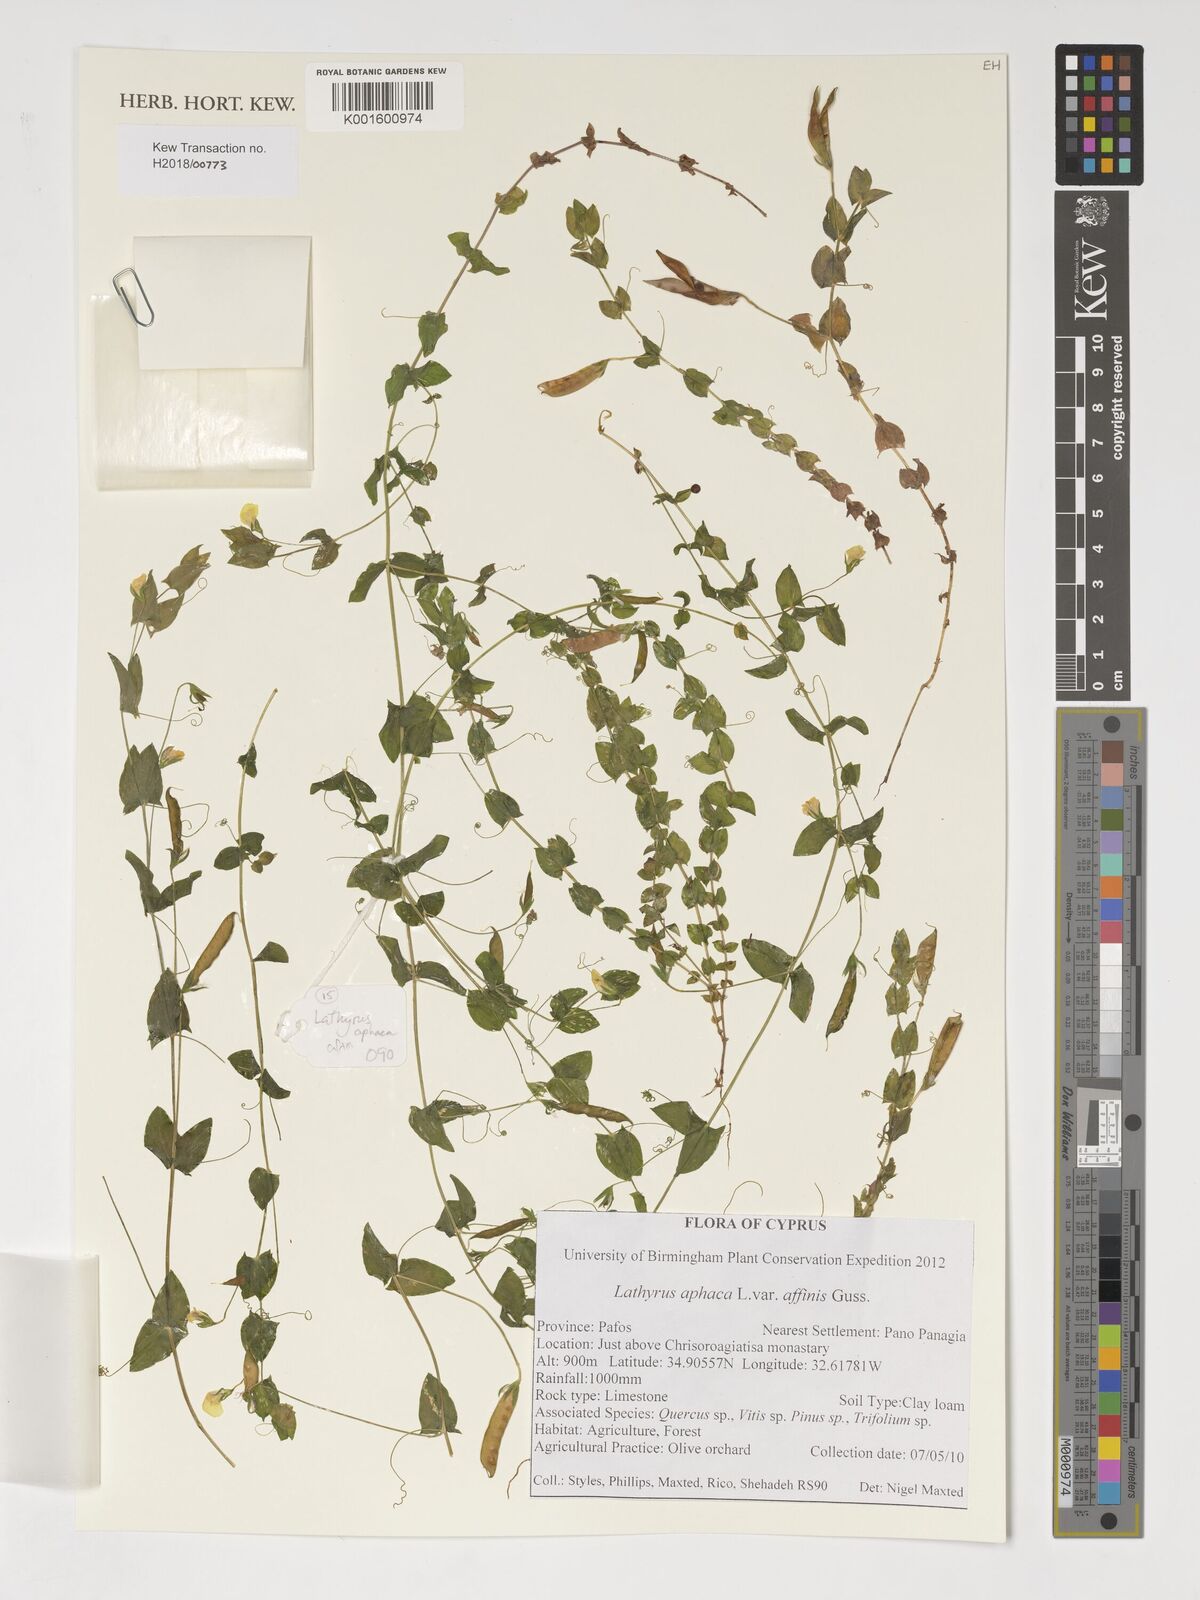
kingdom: Plantae
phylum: Tracheophyta
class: Magnoliopsida
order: Fabales
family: Fabaceae
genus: Lathyrus
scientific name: Lathyrus aphaca
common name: Yellow vetchling
